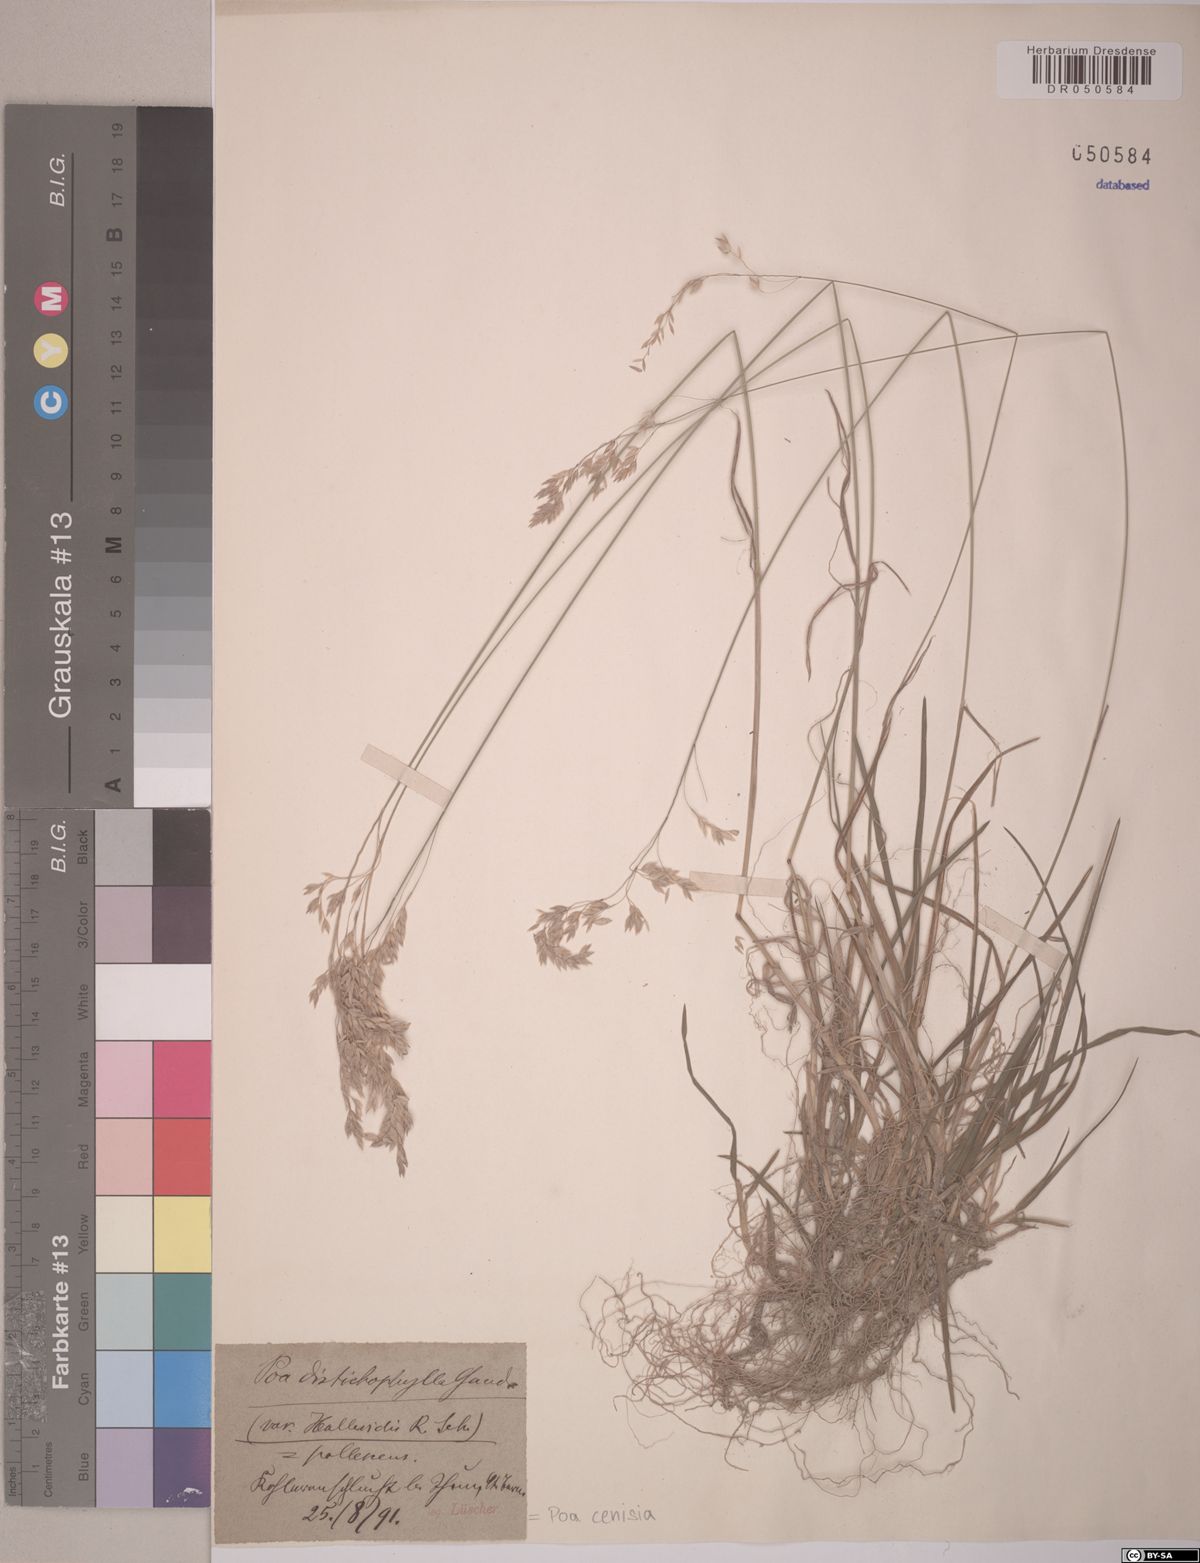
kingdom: Plantae
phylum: Tracheophyta
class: Liliopsida
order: Poales
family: Poaceae
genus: Poa
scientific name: Poa cenisia
